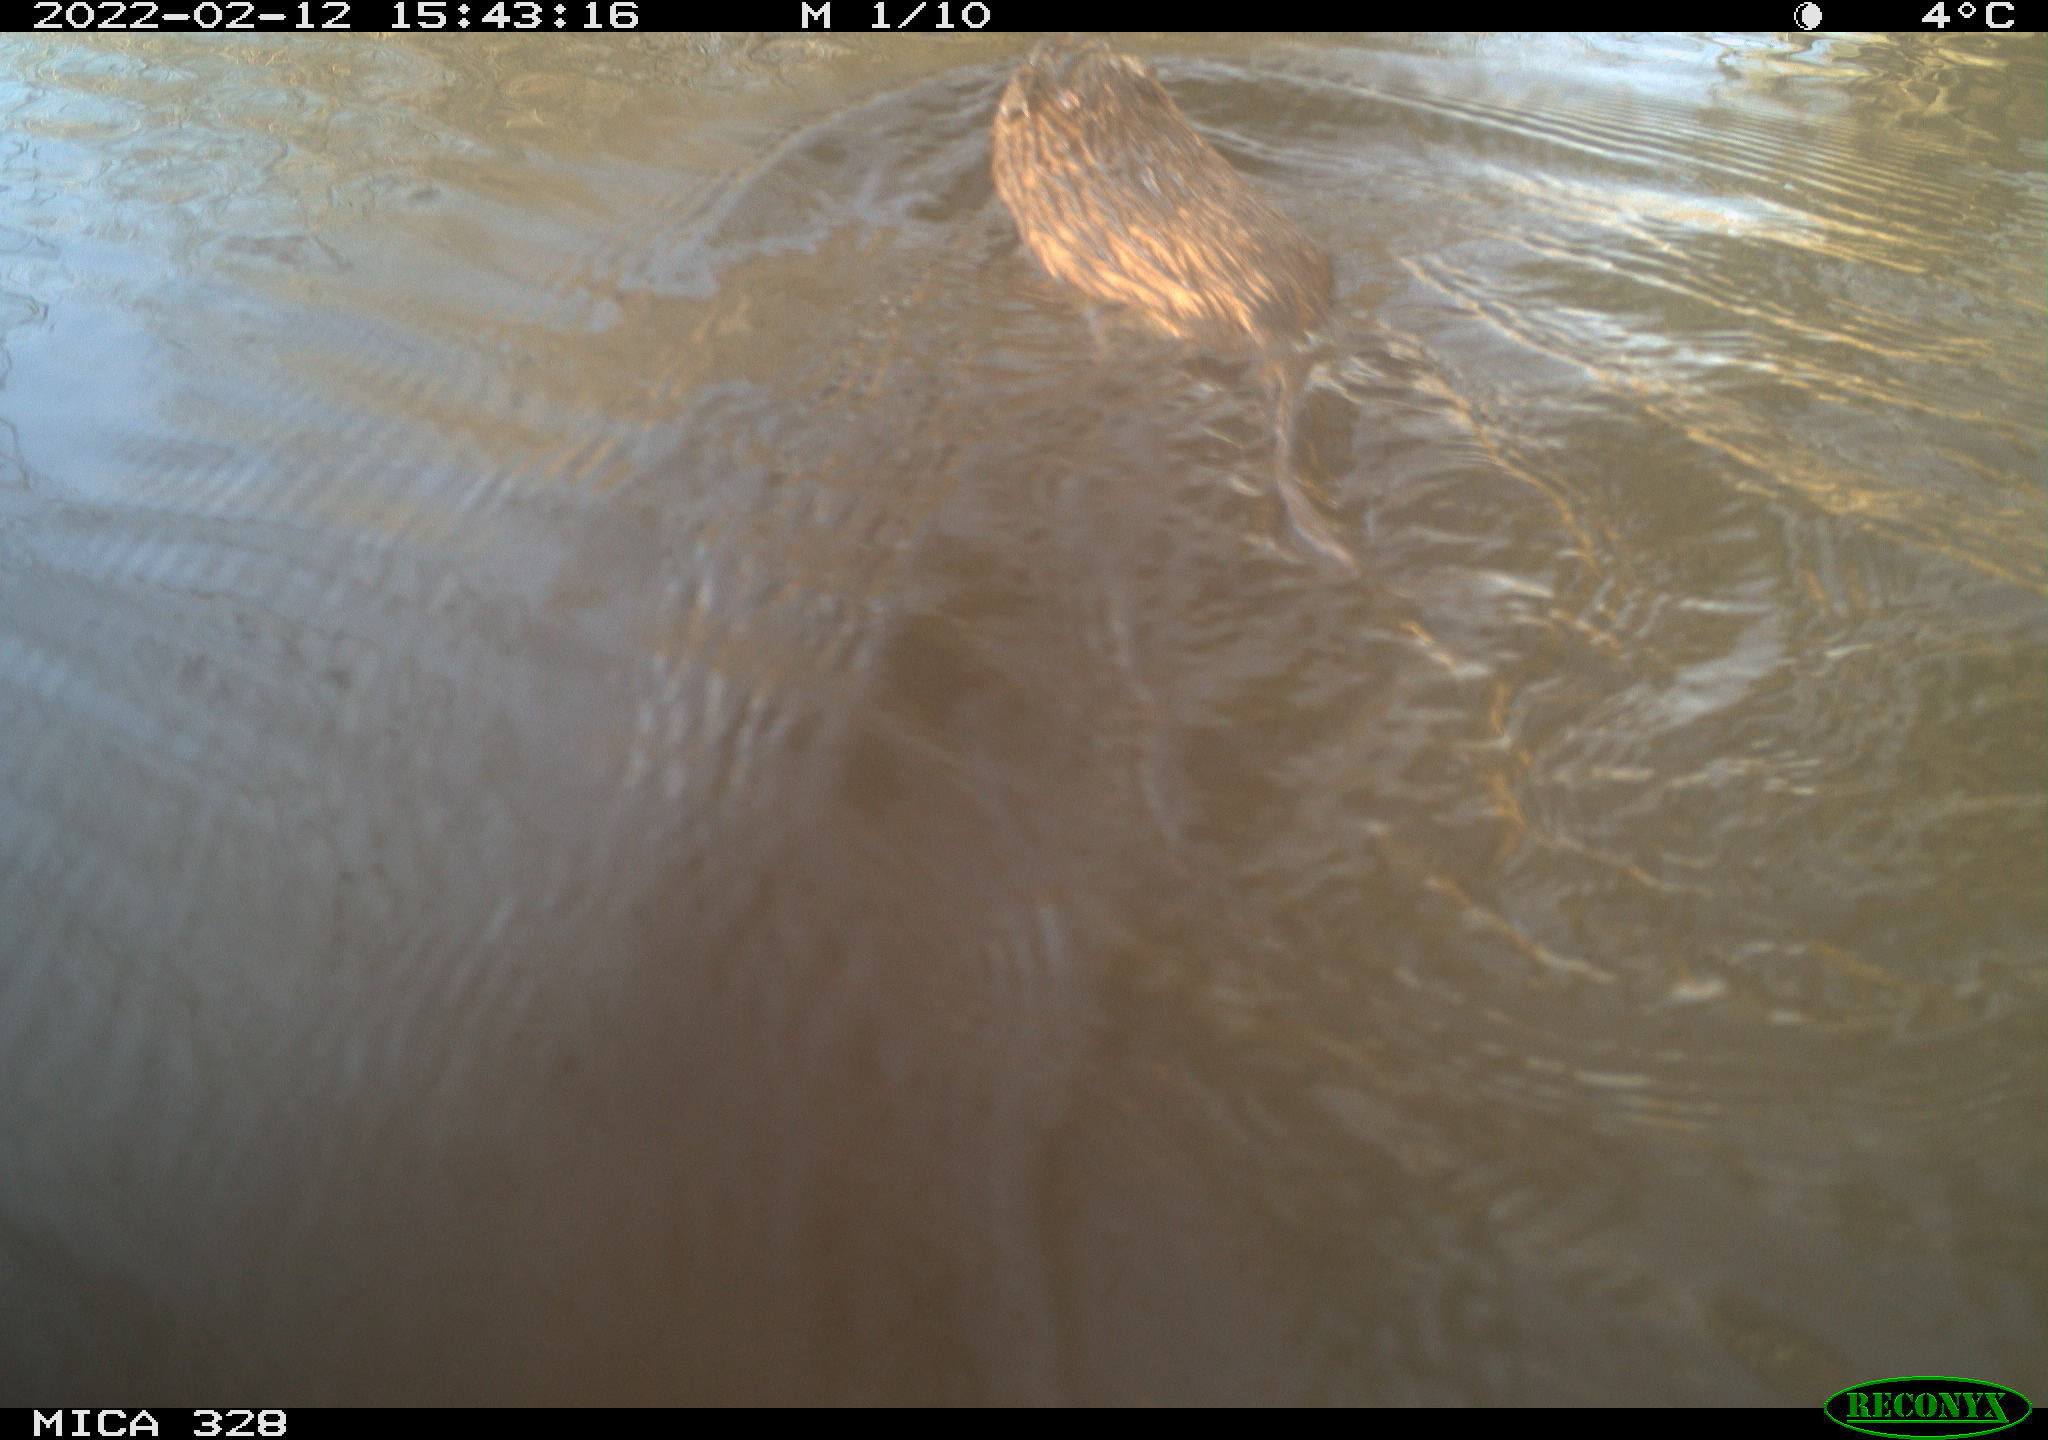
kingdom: Animalia
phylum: Chordata
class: Mammalia
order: Rodentia
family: Cricetidae
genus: Ondatra
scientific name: Ondatra zibethicus
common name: Muskrat
